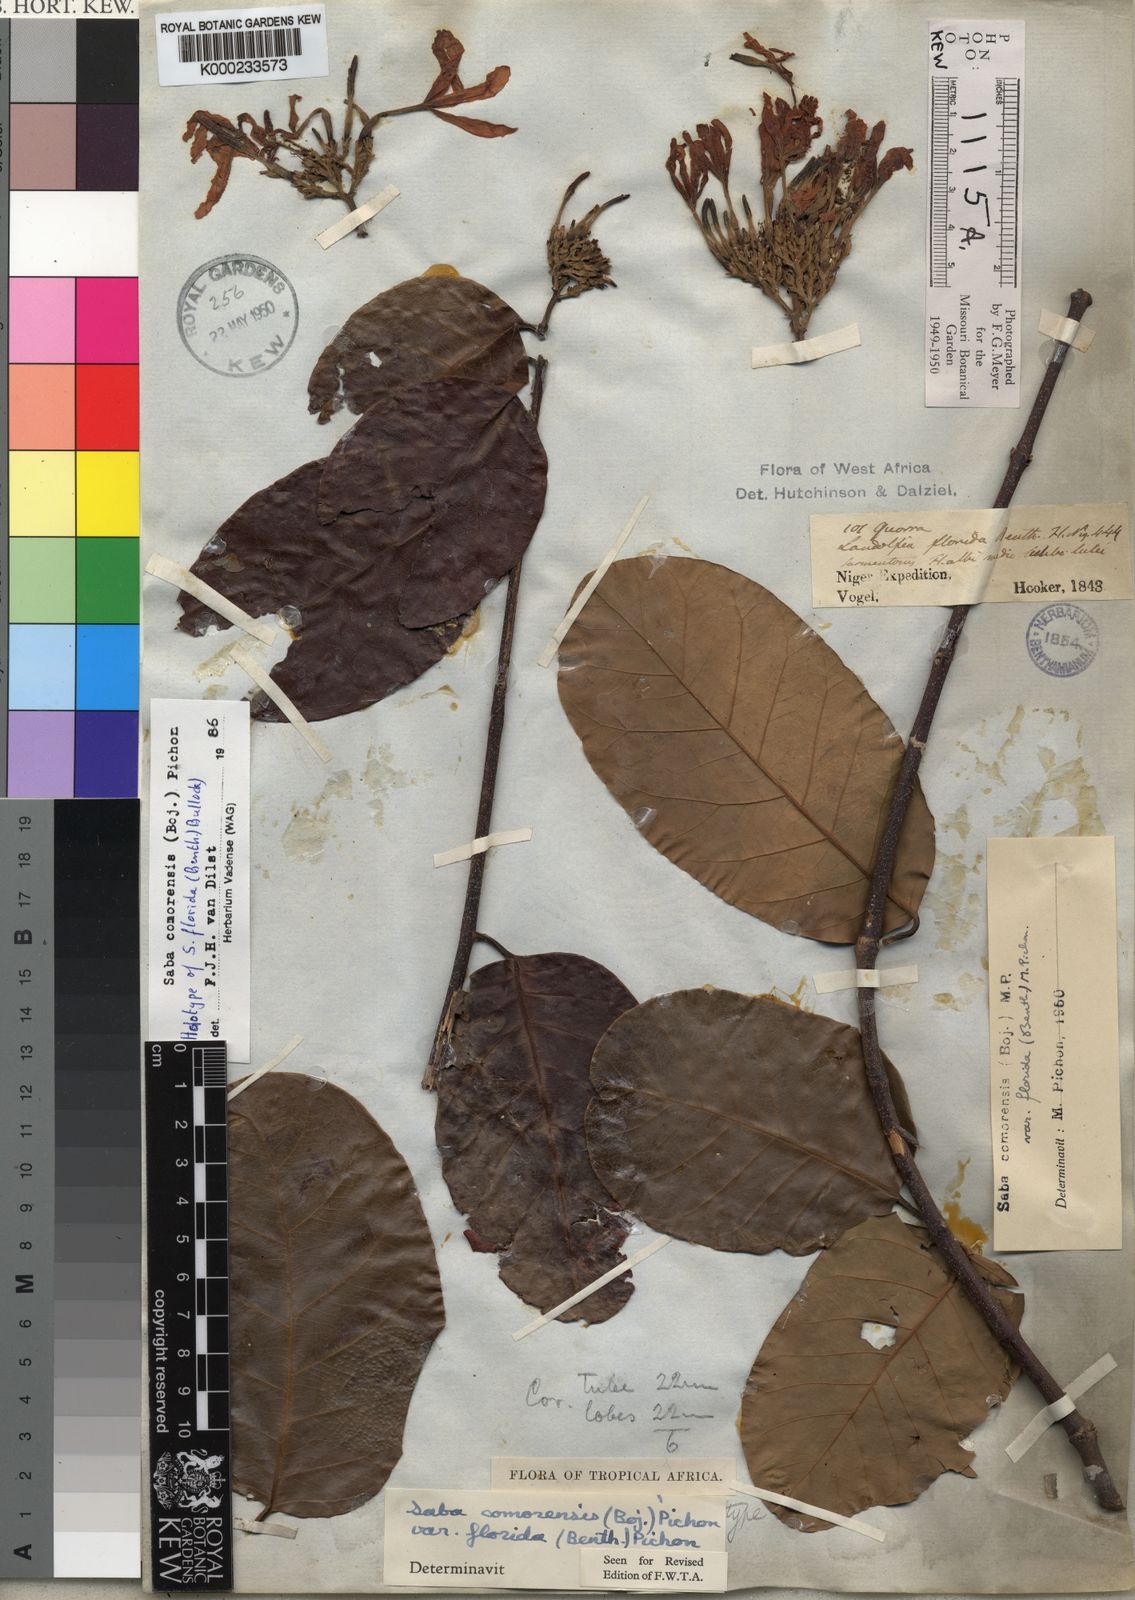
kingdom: Plantae
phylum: Tracheophyta
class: Magnoliopsida
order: Gentianales
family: Apocynaceae
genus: Saba
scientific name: Saba comorensis
